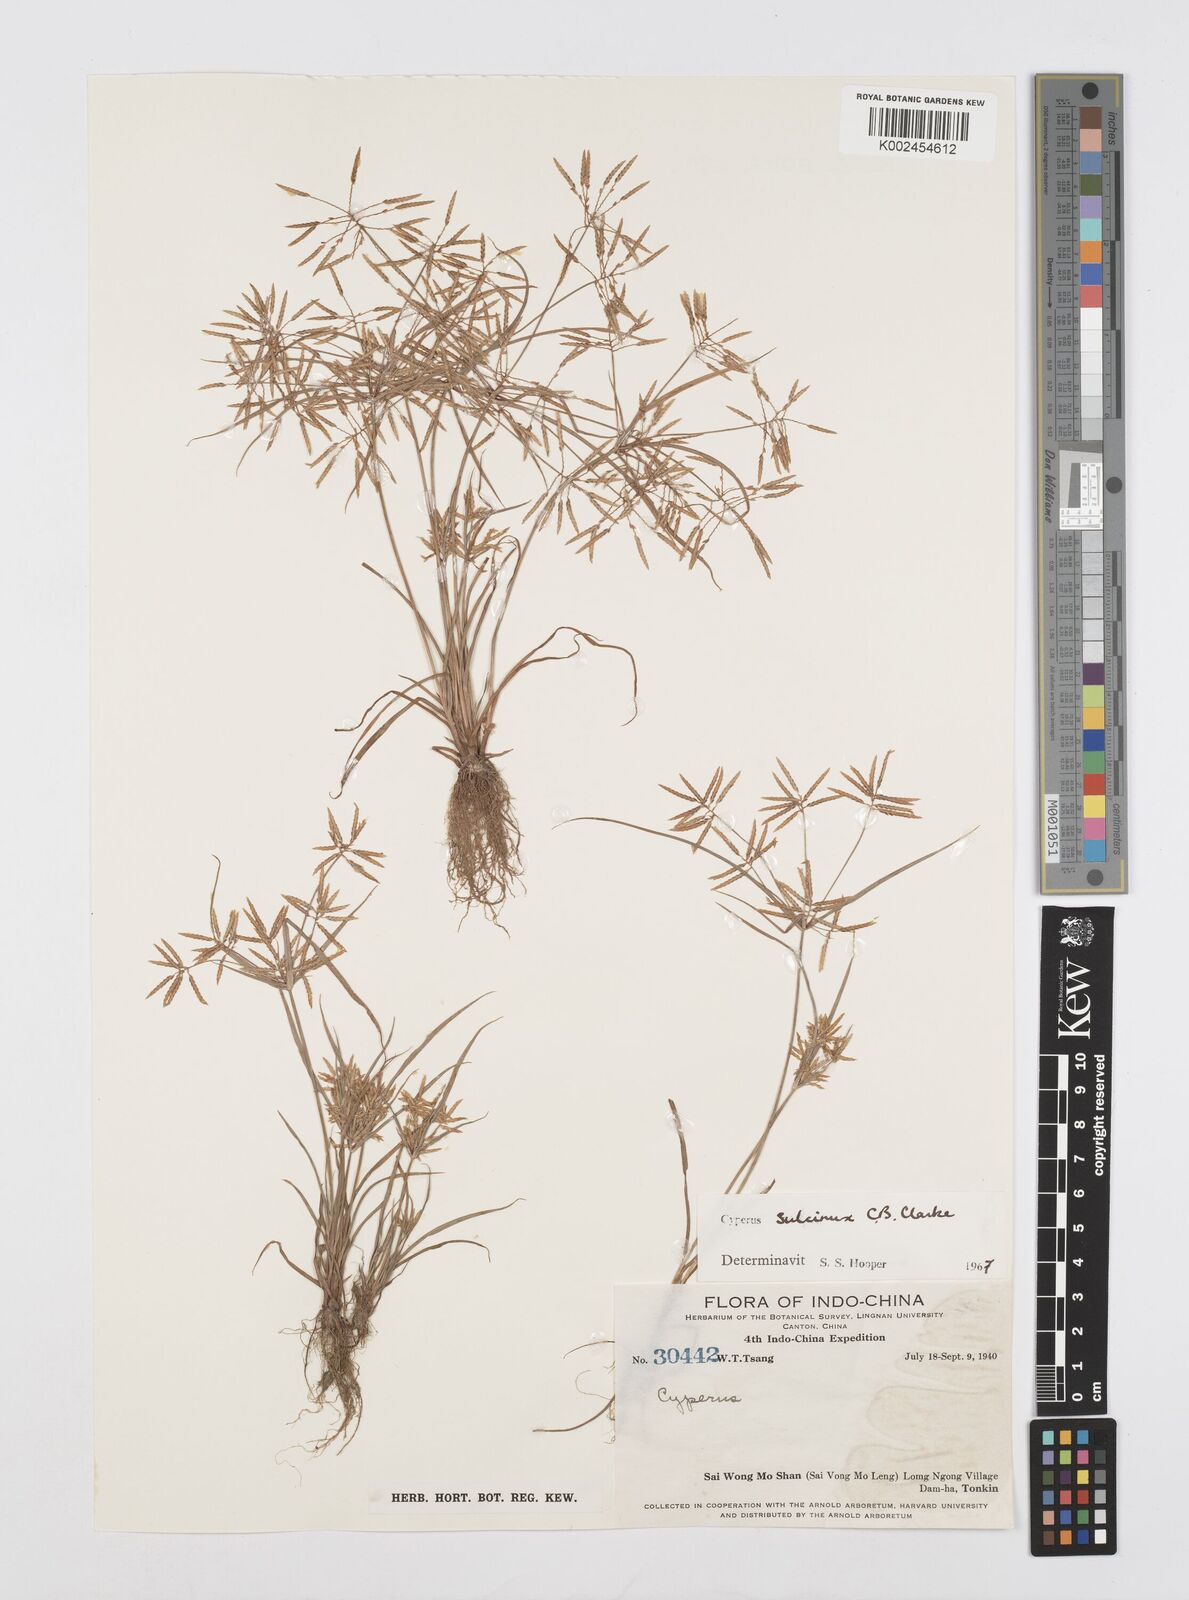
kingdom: Plantae
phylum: Tracheophyta
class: Liliopsida
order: Poales
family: Cyperaceae
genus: Cyperus
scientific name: Cyperus sulcinux
